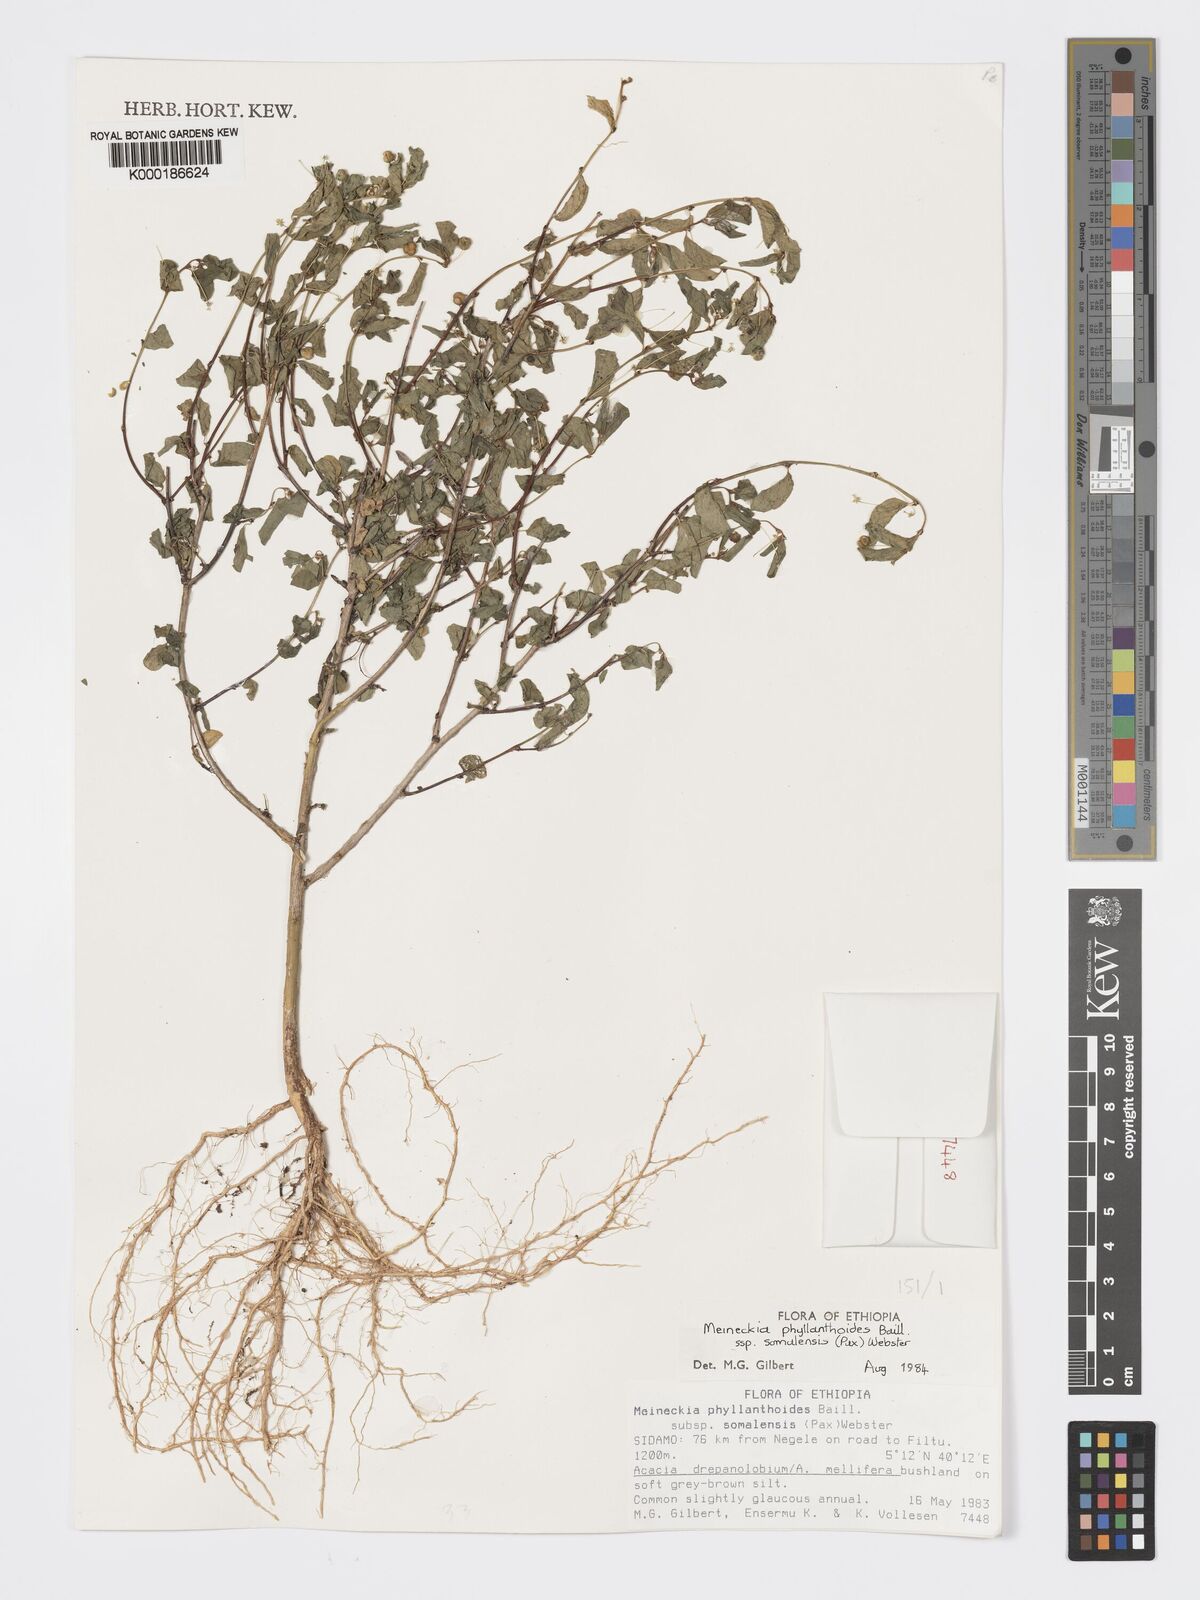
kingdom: Plantae
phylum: Tracheophyta
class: Magnoliopsida
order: Malpighiales
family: Phyllanthaceae
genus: Meineckia
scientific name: Meineckia phyllanthoides
